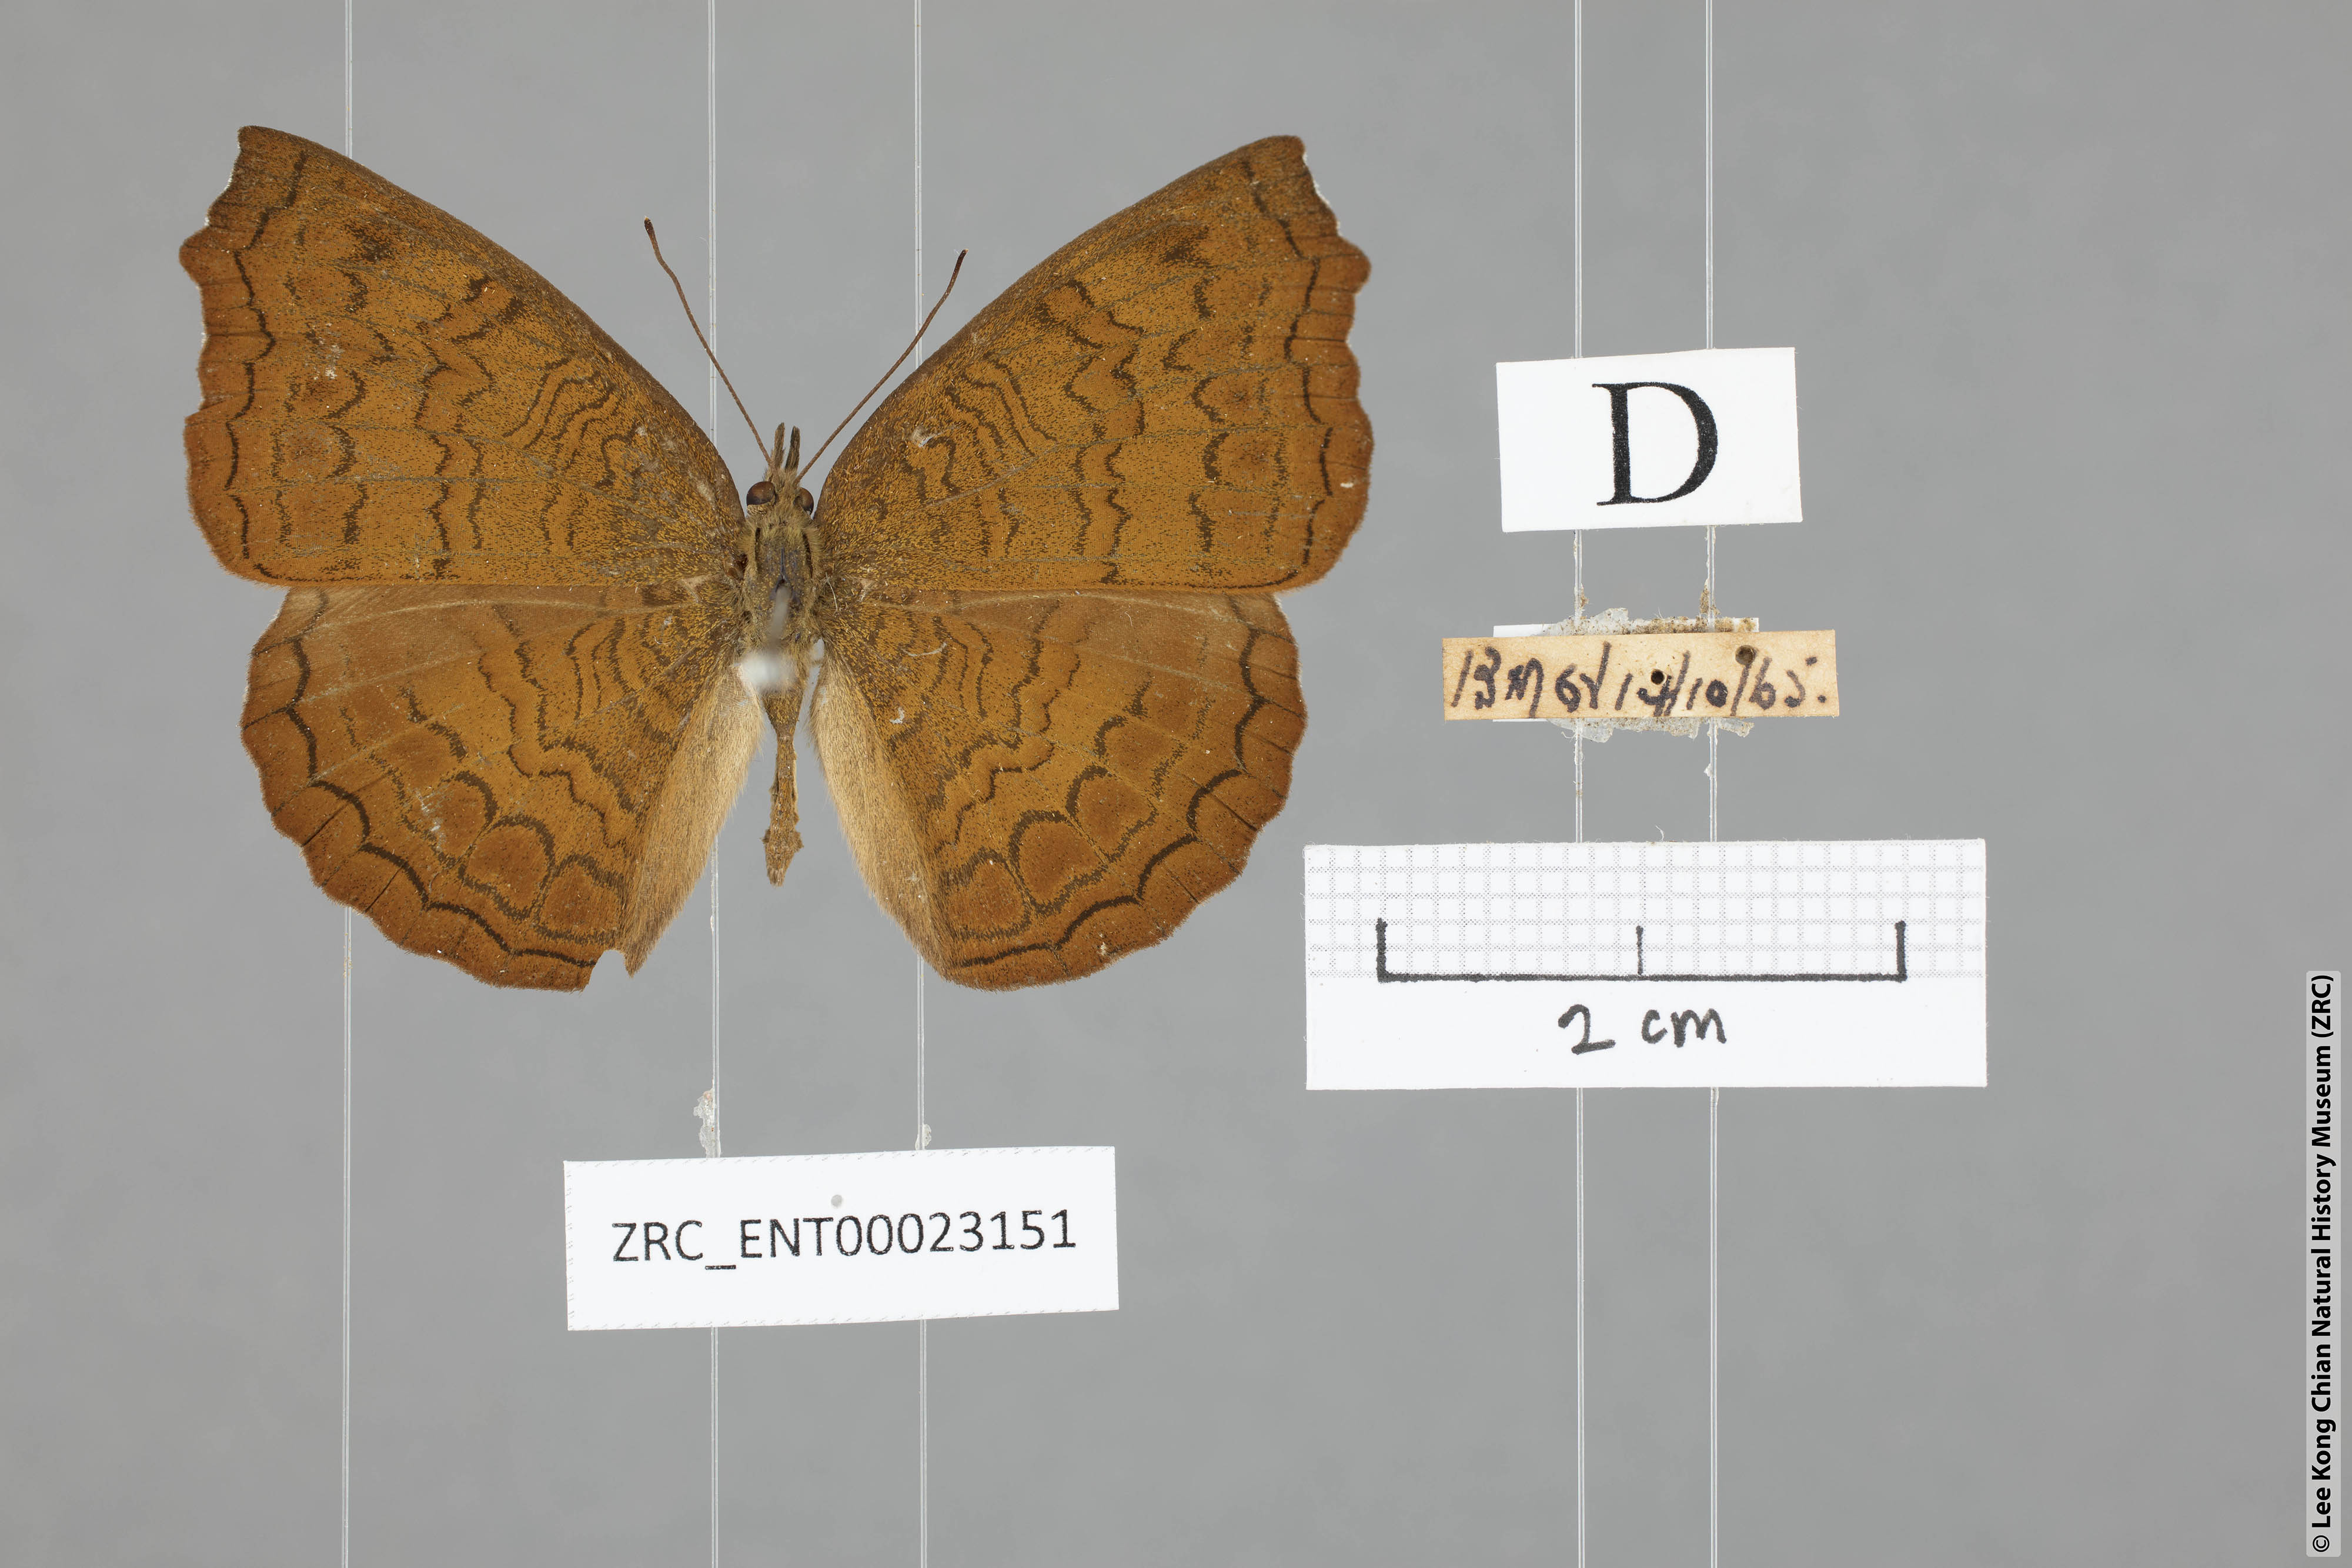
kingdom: Animalia
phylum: Arthropoda
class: Insecta
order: Lepidoptera
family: Nymphalidae
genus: Ariadne
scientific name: Ariadne isaeus
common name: Malayan castor
